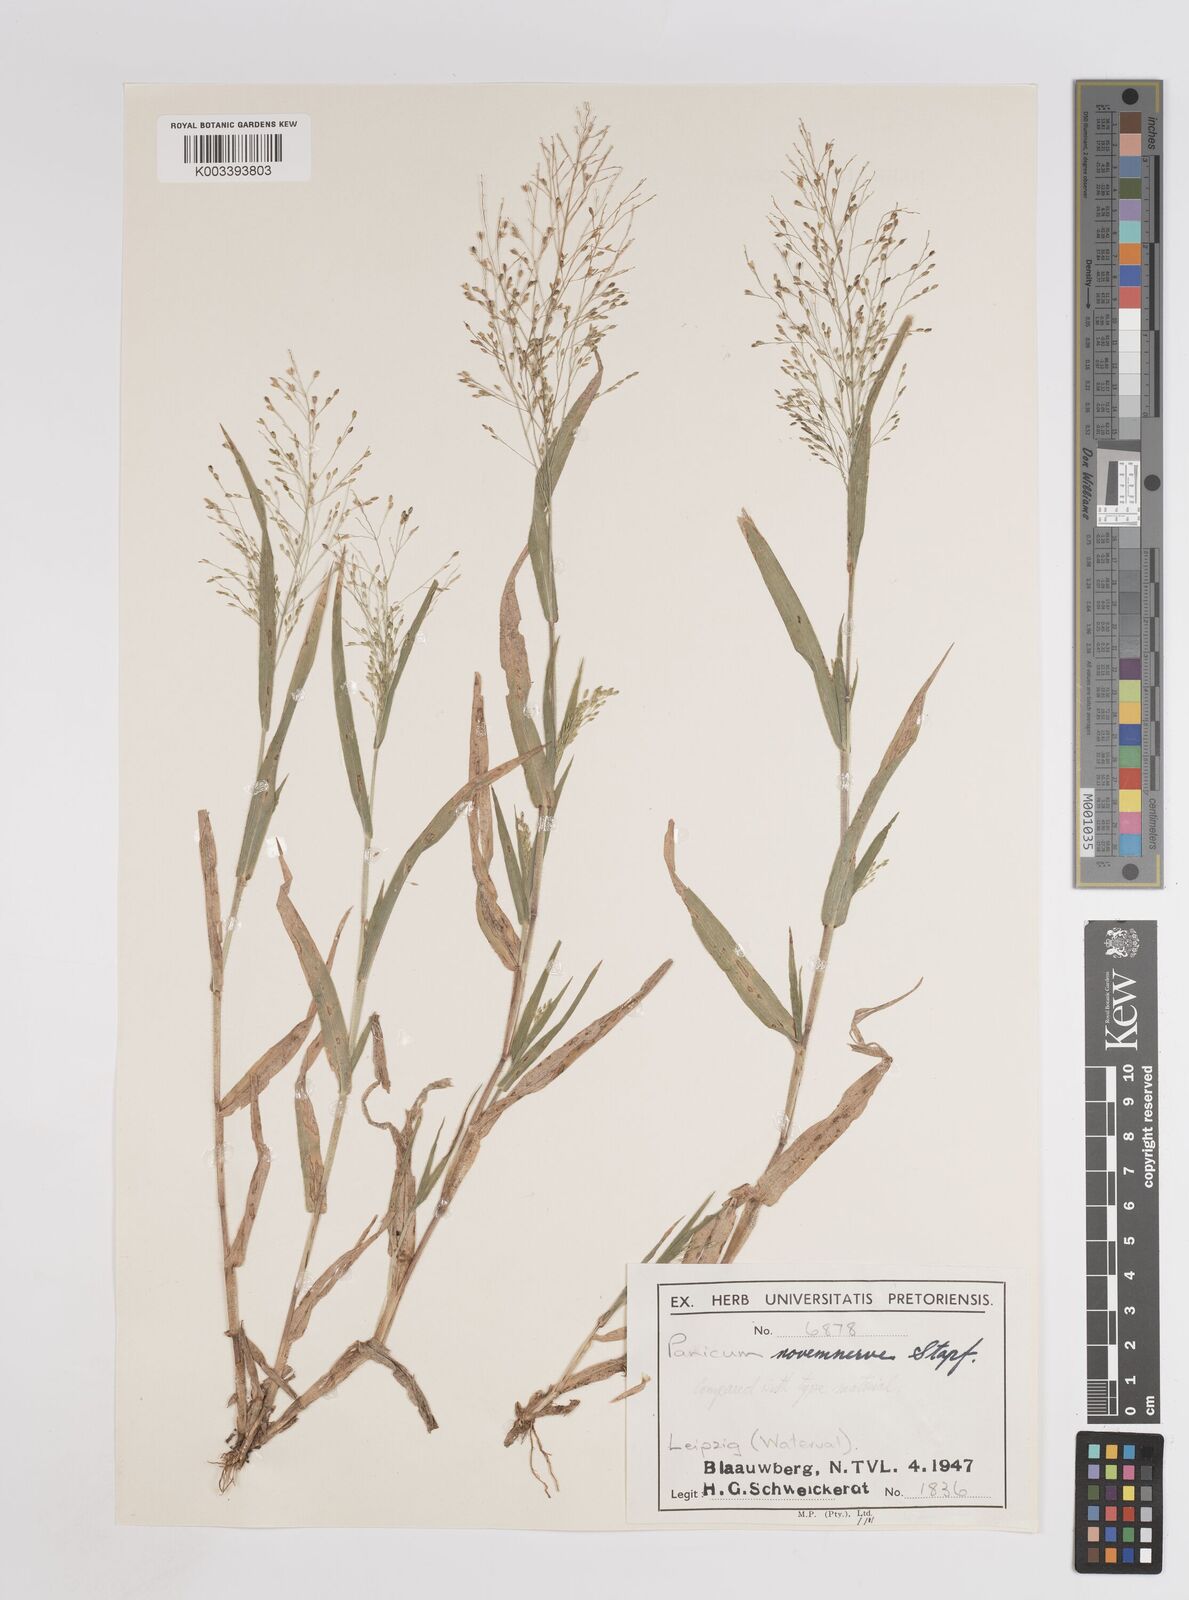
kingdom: Plantae
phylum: Tracheophyta
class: Liliopsida
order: Poales
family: Poaceae
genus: Panicum
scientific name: Panicum novemnerve
